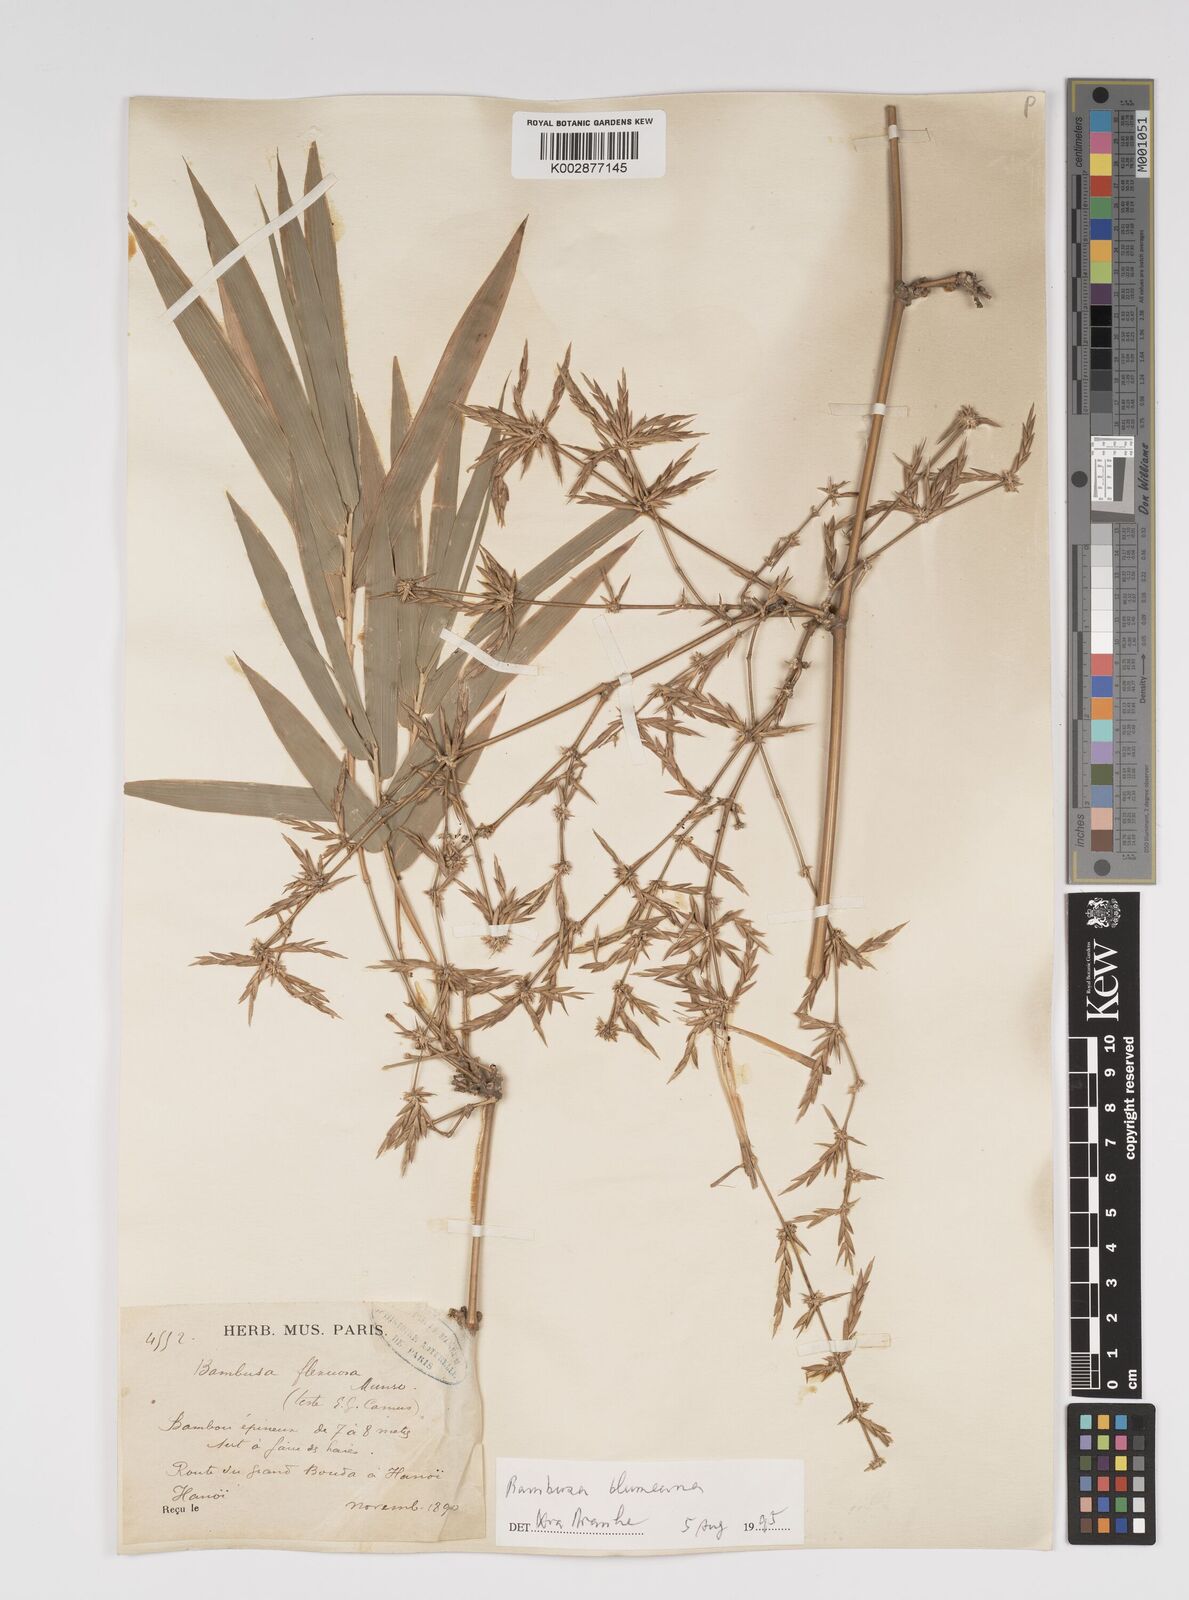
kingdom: Plantae
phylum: Tracheophyta
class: Liliopsida
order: Poales
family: Poaceae
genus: Bambusa
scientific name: Bambusa
